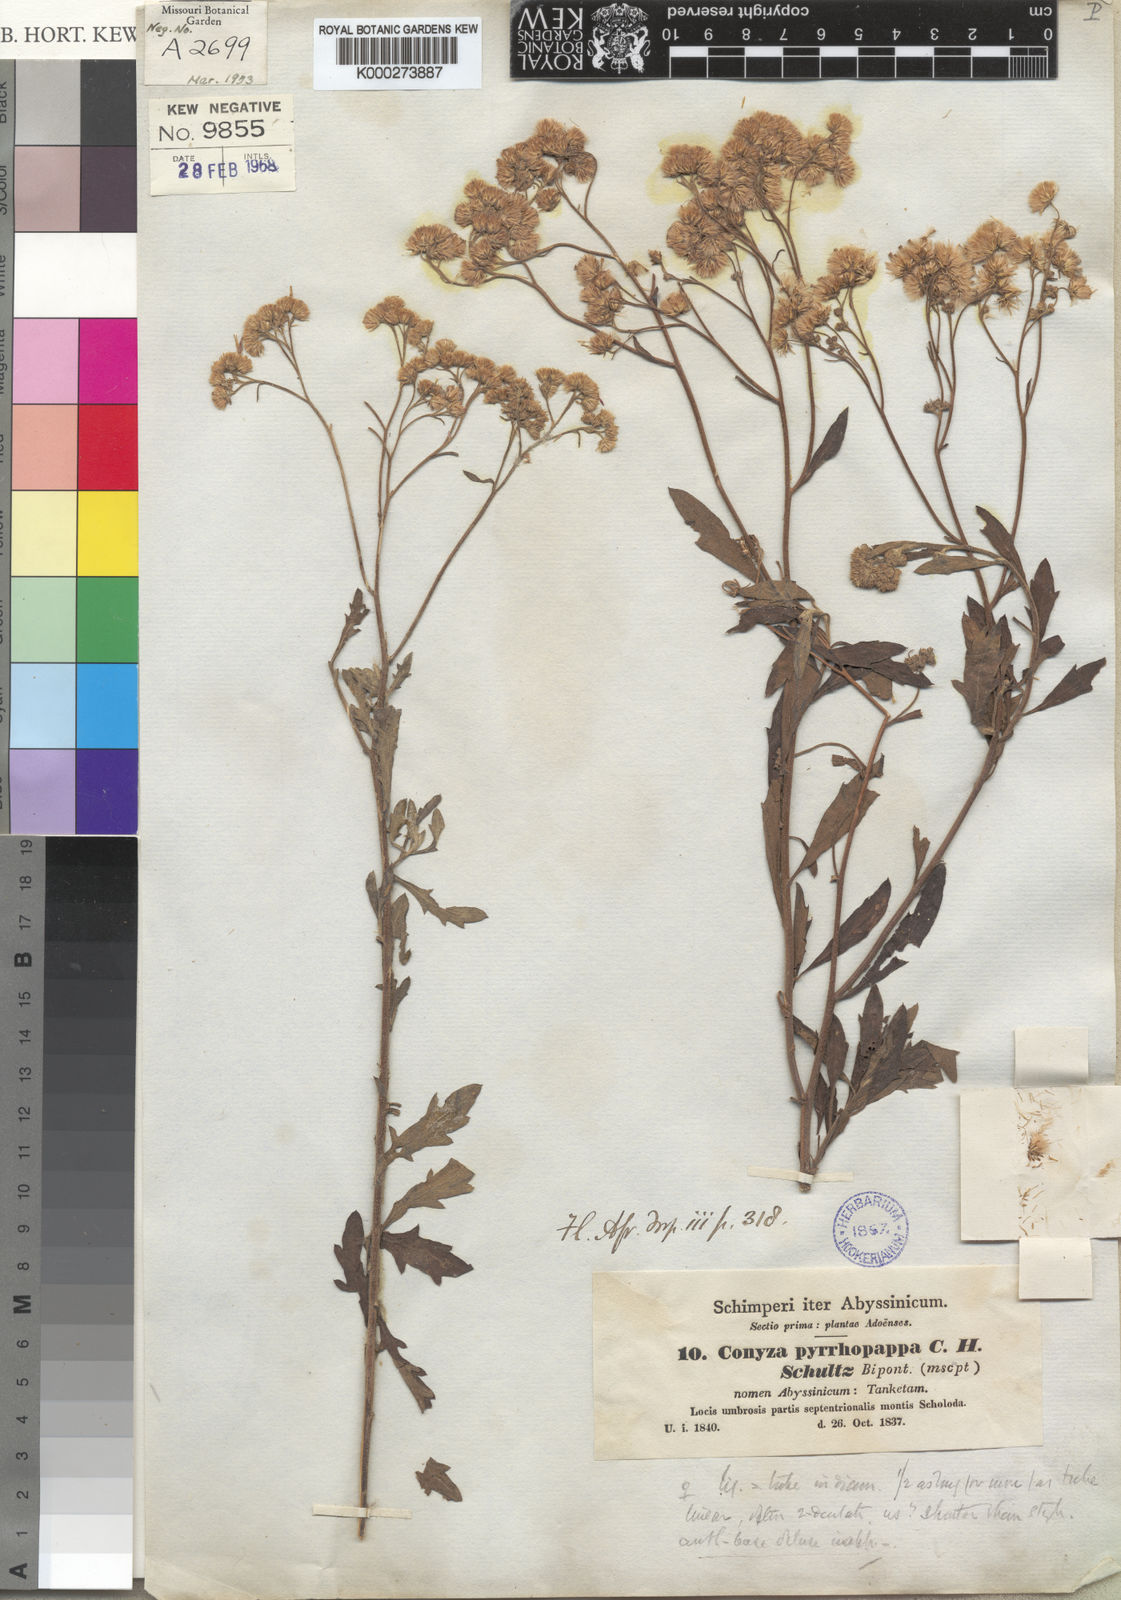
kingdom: Plantae
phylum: Tracheophyta
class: Magnoliopsida
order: Asterales
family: Asteraceae
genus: Microglossa
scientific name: Microglossa pyrrhopappa
